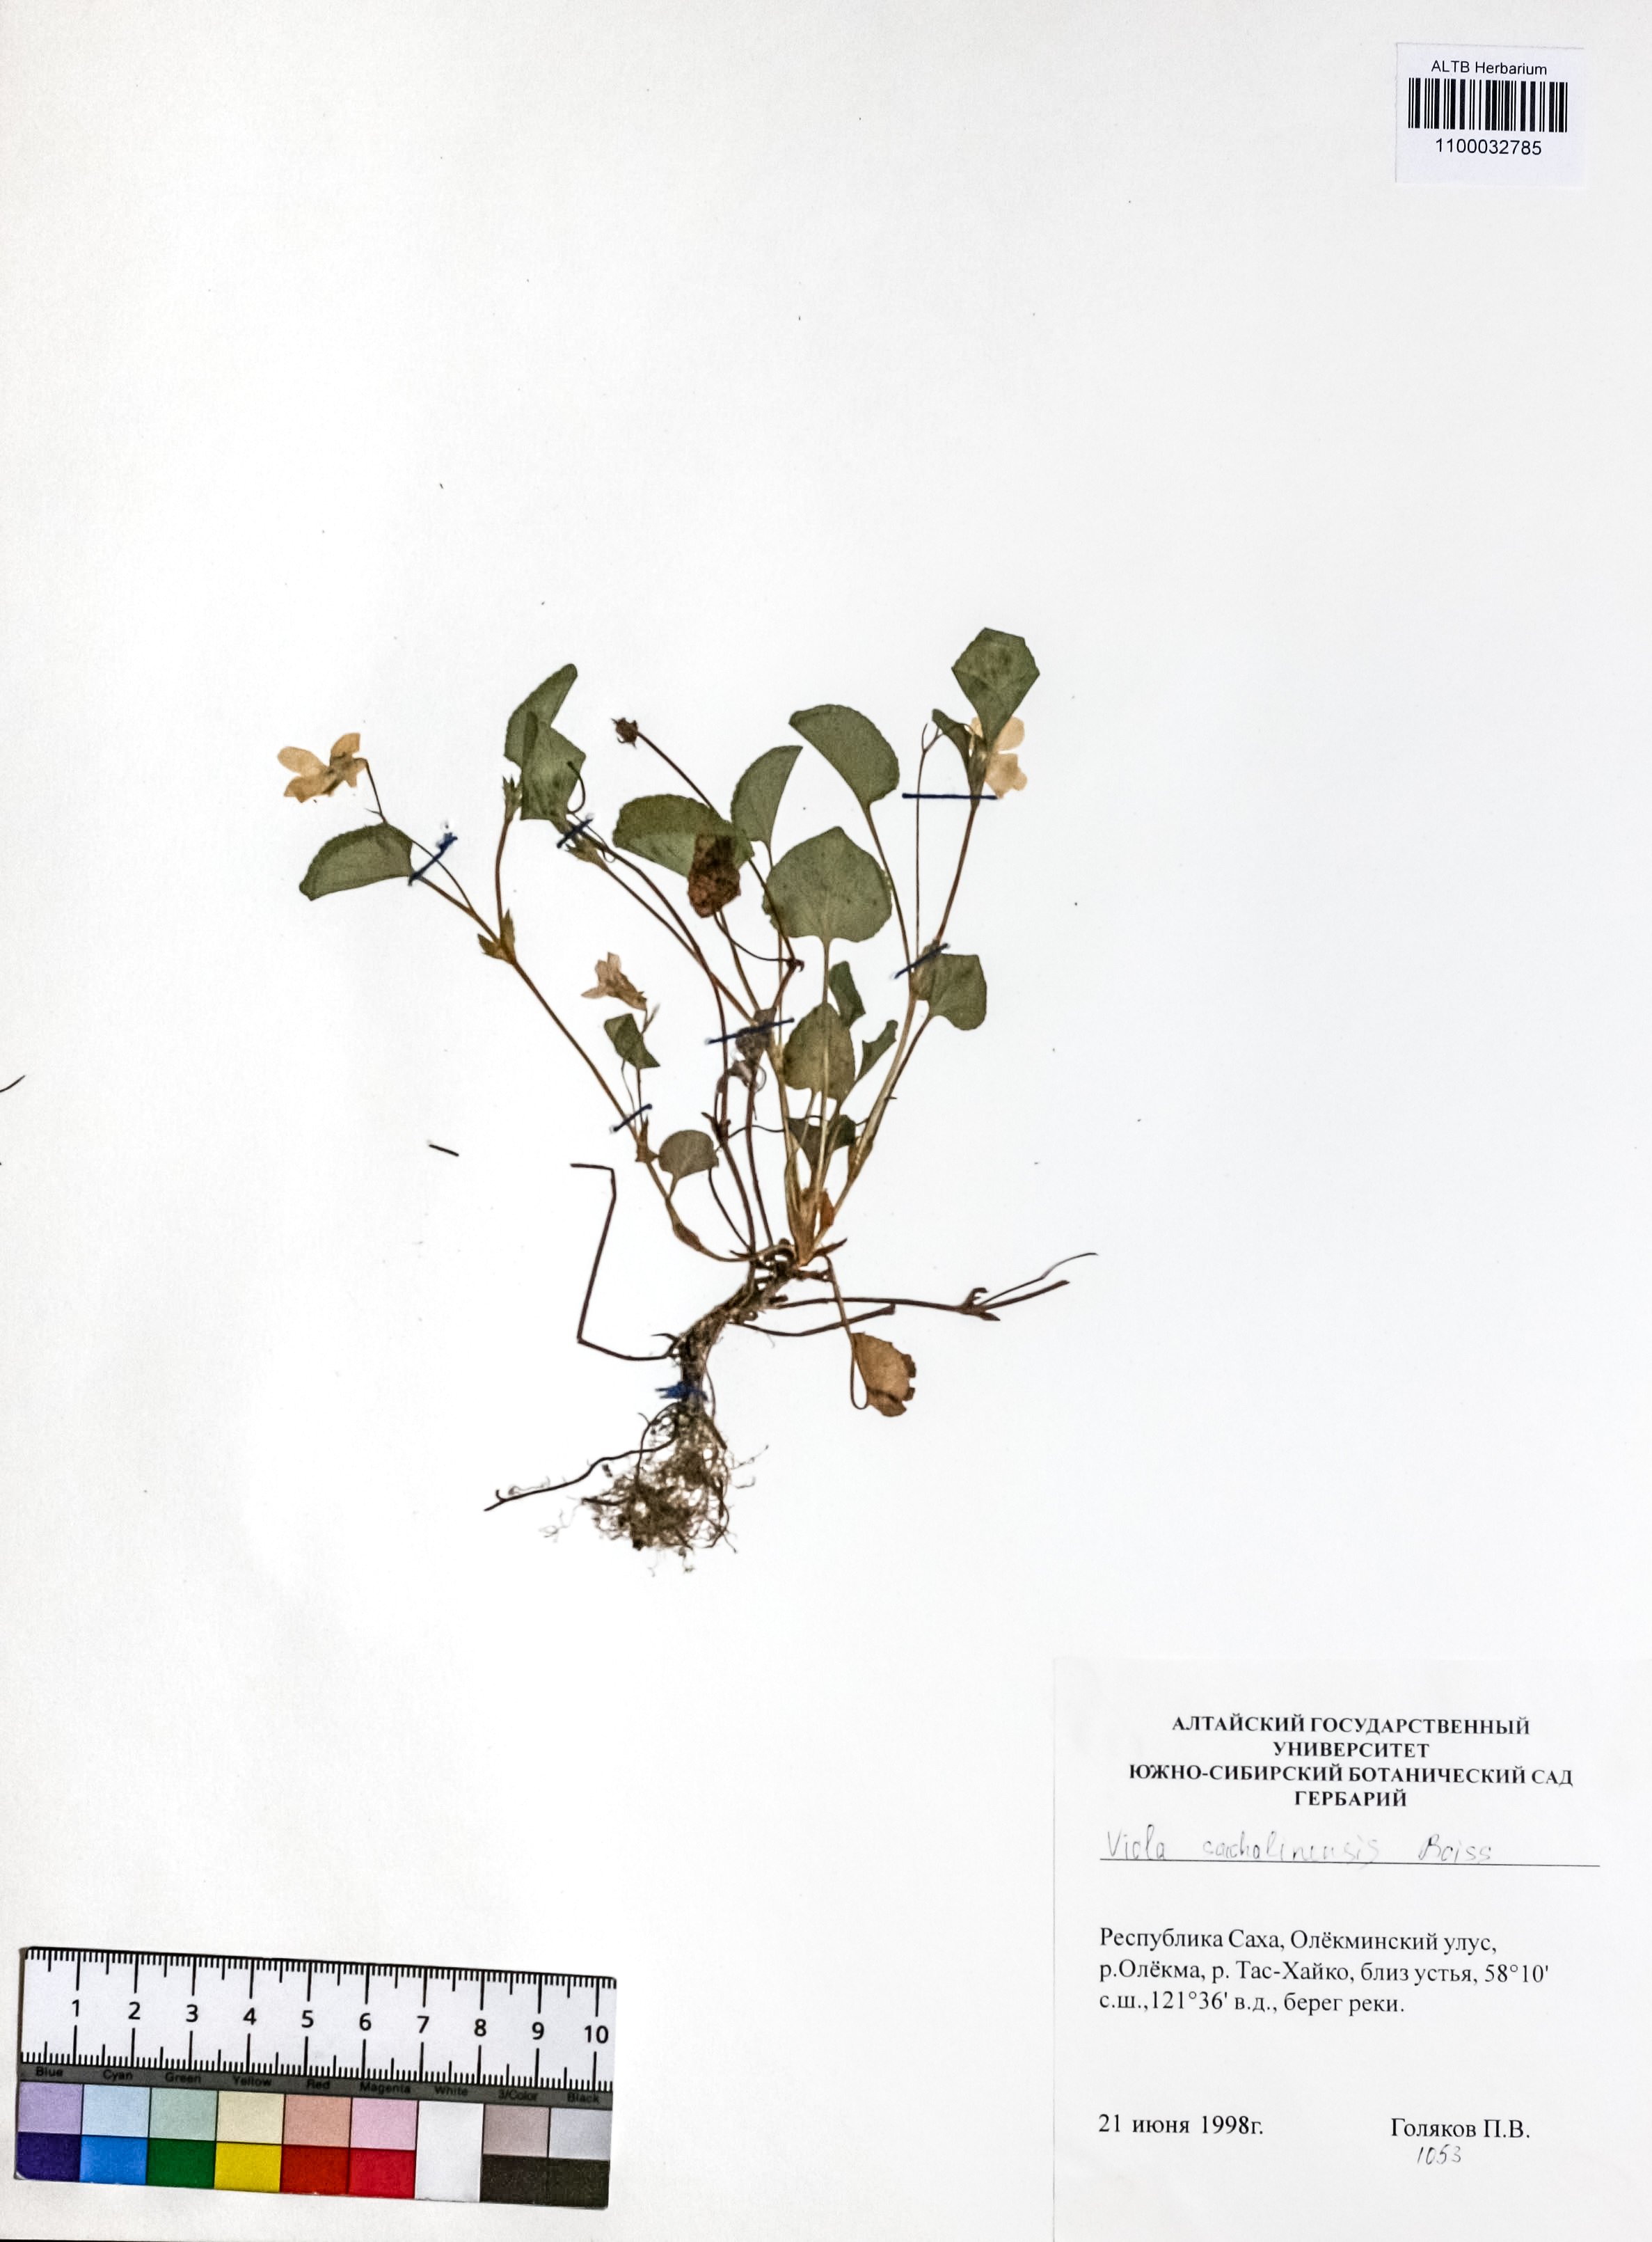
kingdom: Plantae
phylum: Tracheophyta
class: Magnoliopsida
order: Malpighiales
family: Violaceae
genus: Viola
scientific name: Viola sacchalinensis
